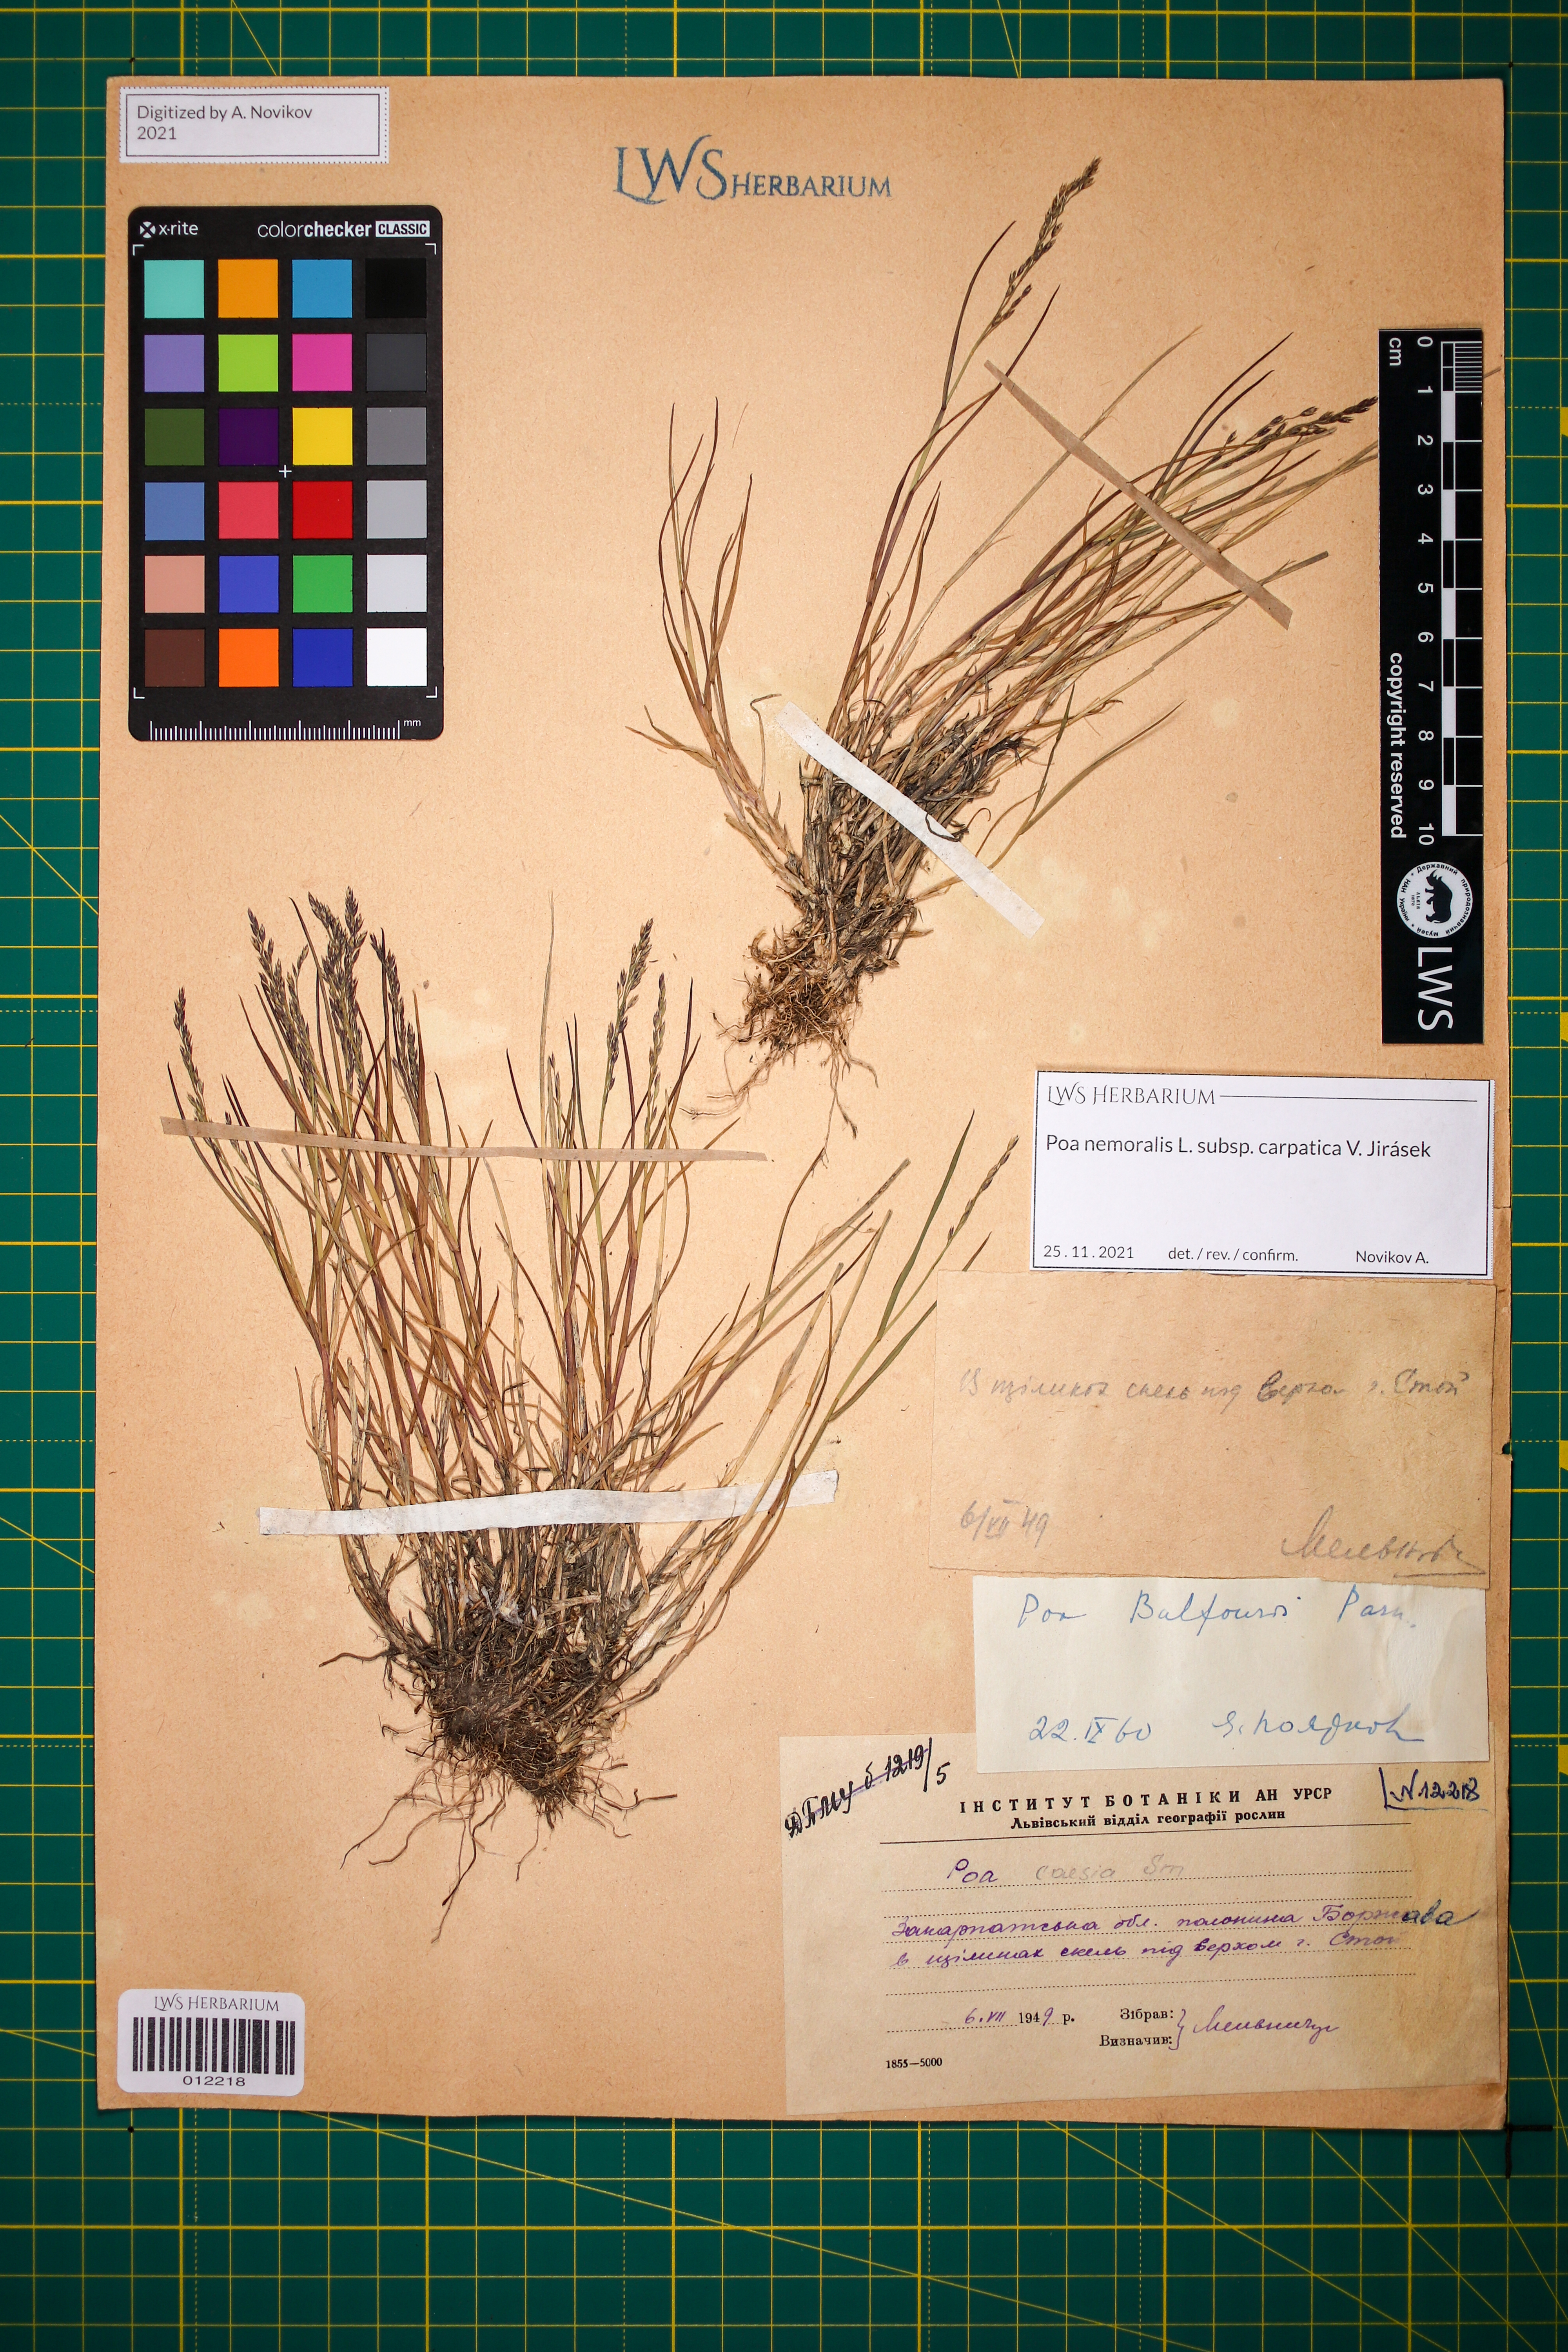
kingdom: Plantae
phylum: Tracheophyta
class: Liliopsida
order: Poales
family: Poaceae
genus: Poa
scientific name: Poa carpatica
